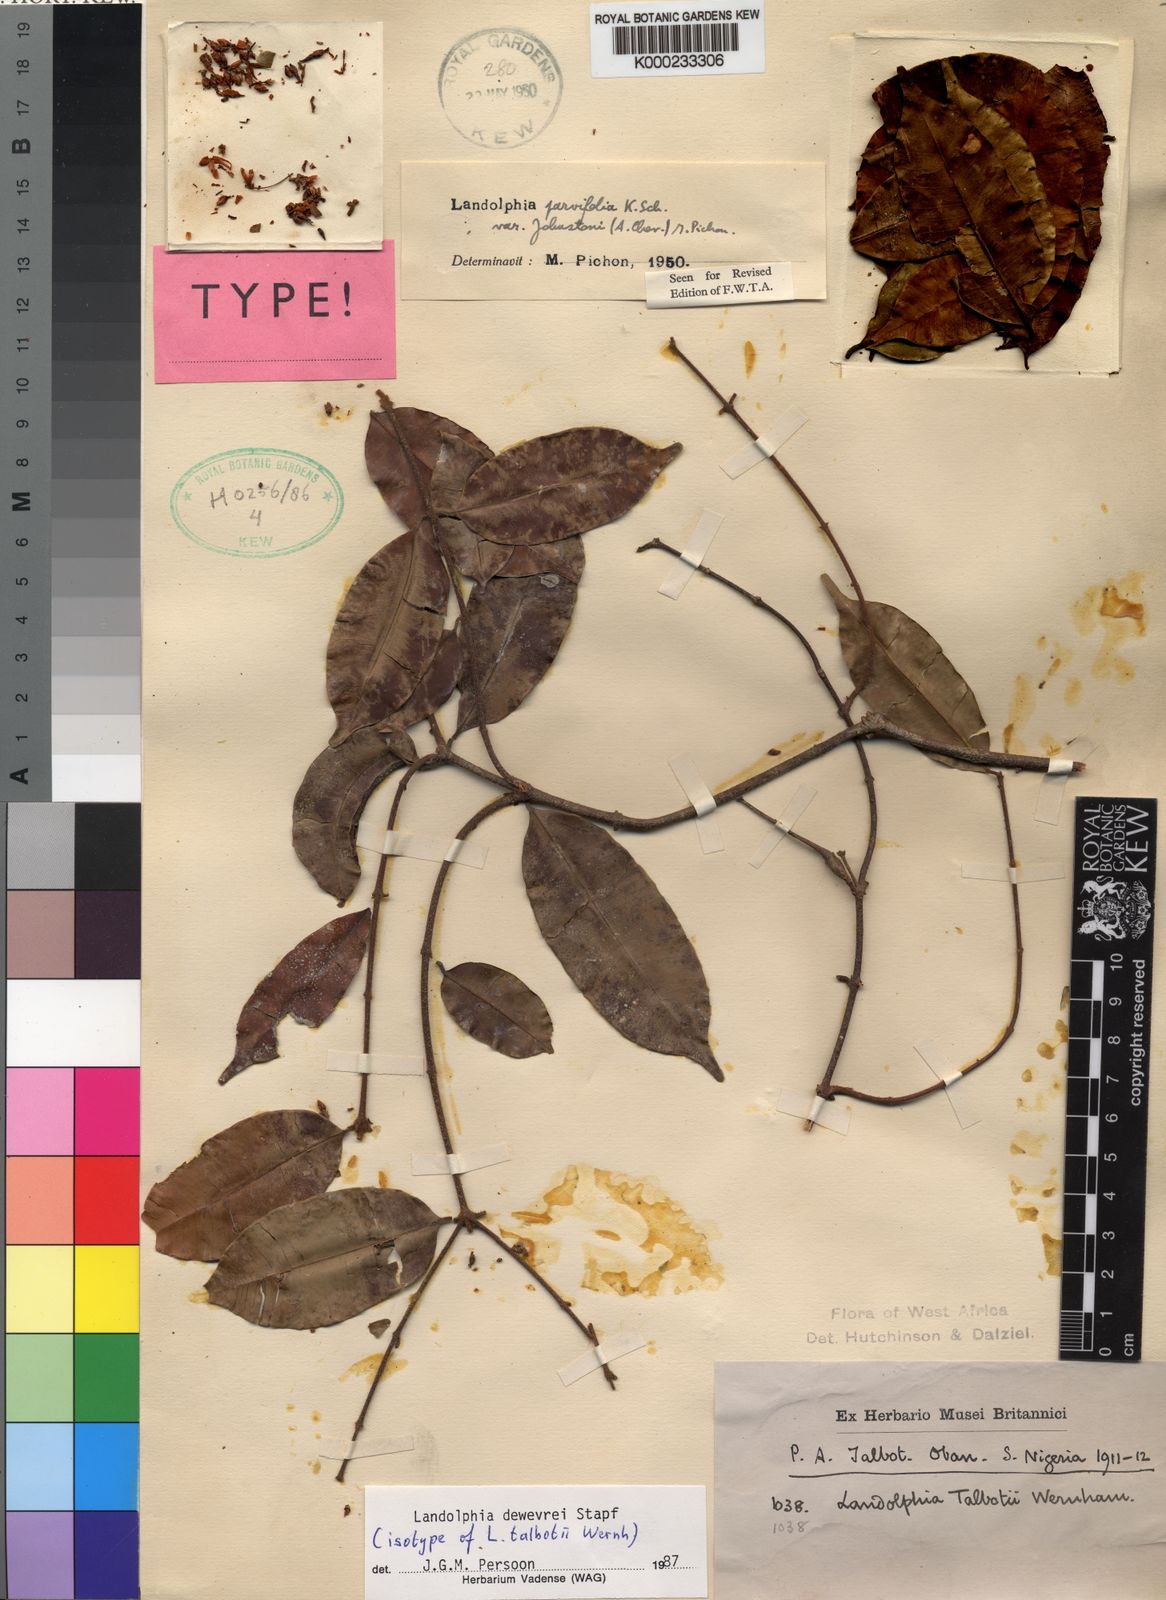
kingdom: Plantae
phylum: Tracheophyta
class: Magnoliopsida
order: Gentianales
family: Apocynaceae
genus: Landolphia
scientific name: Landolphia dewevrei
